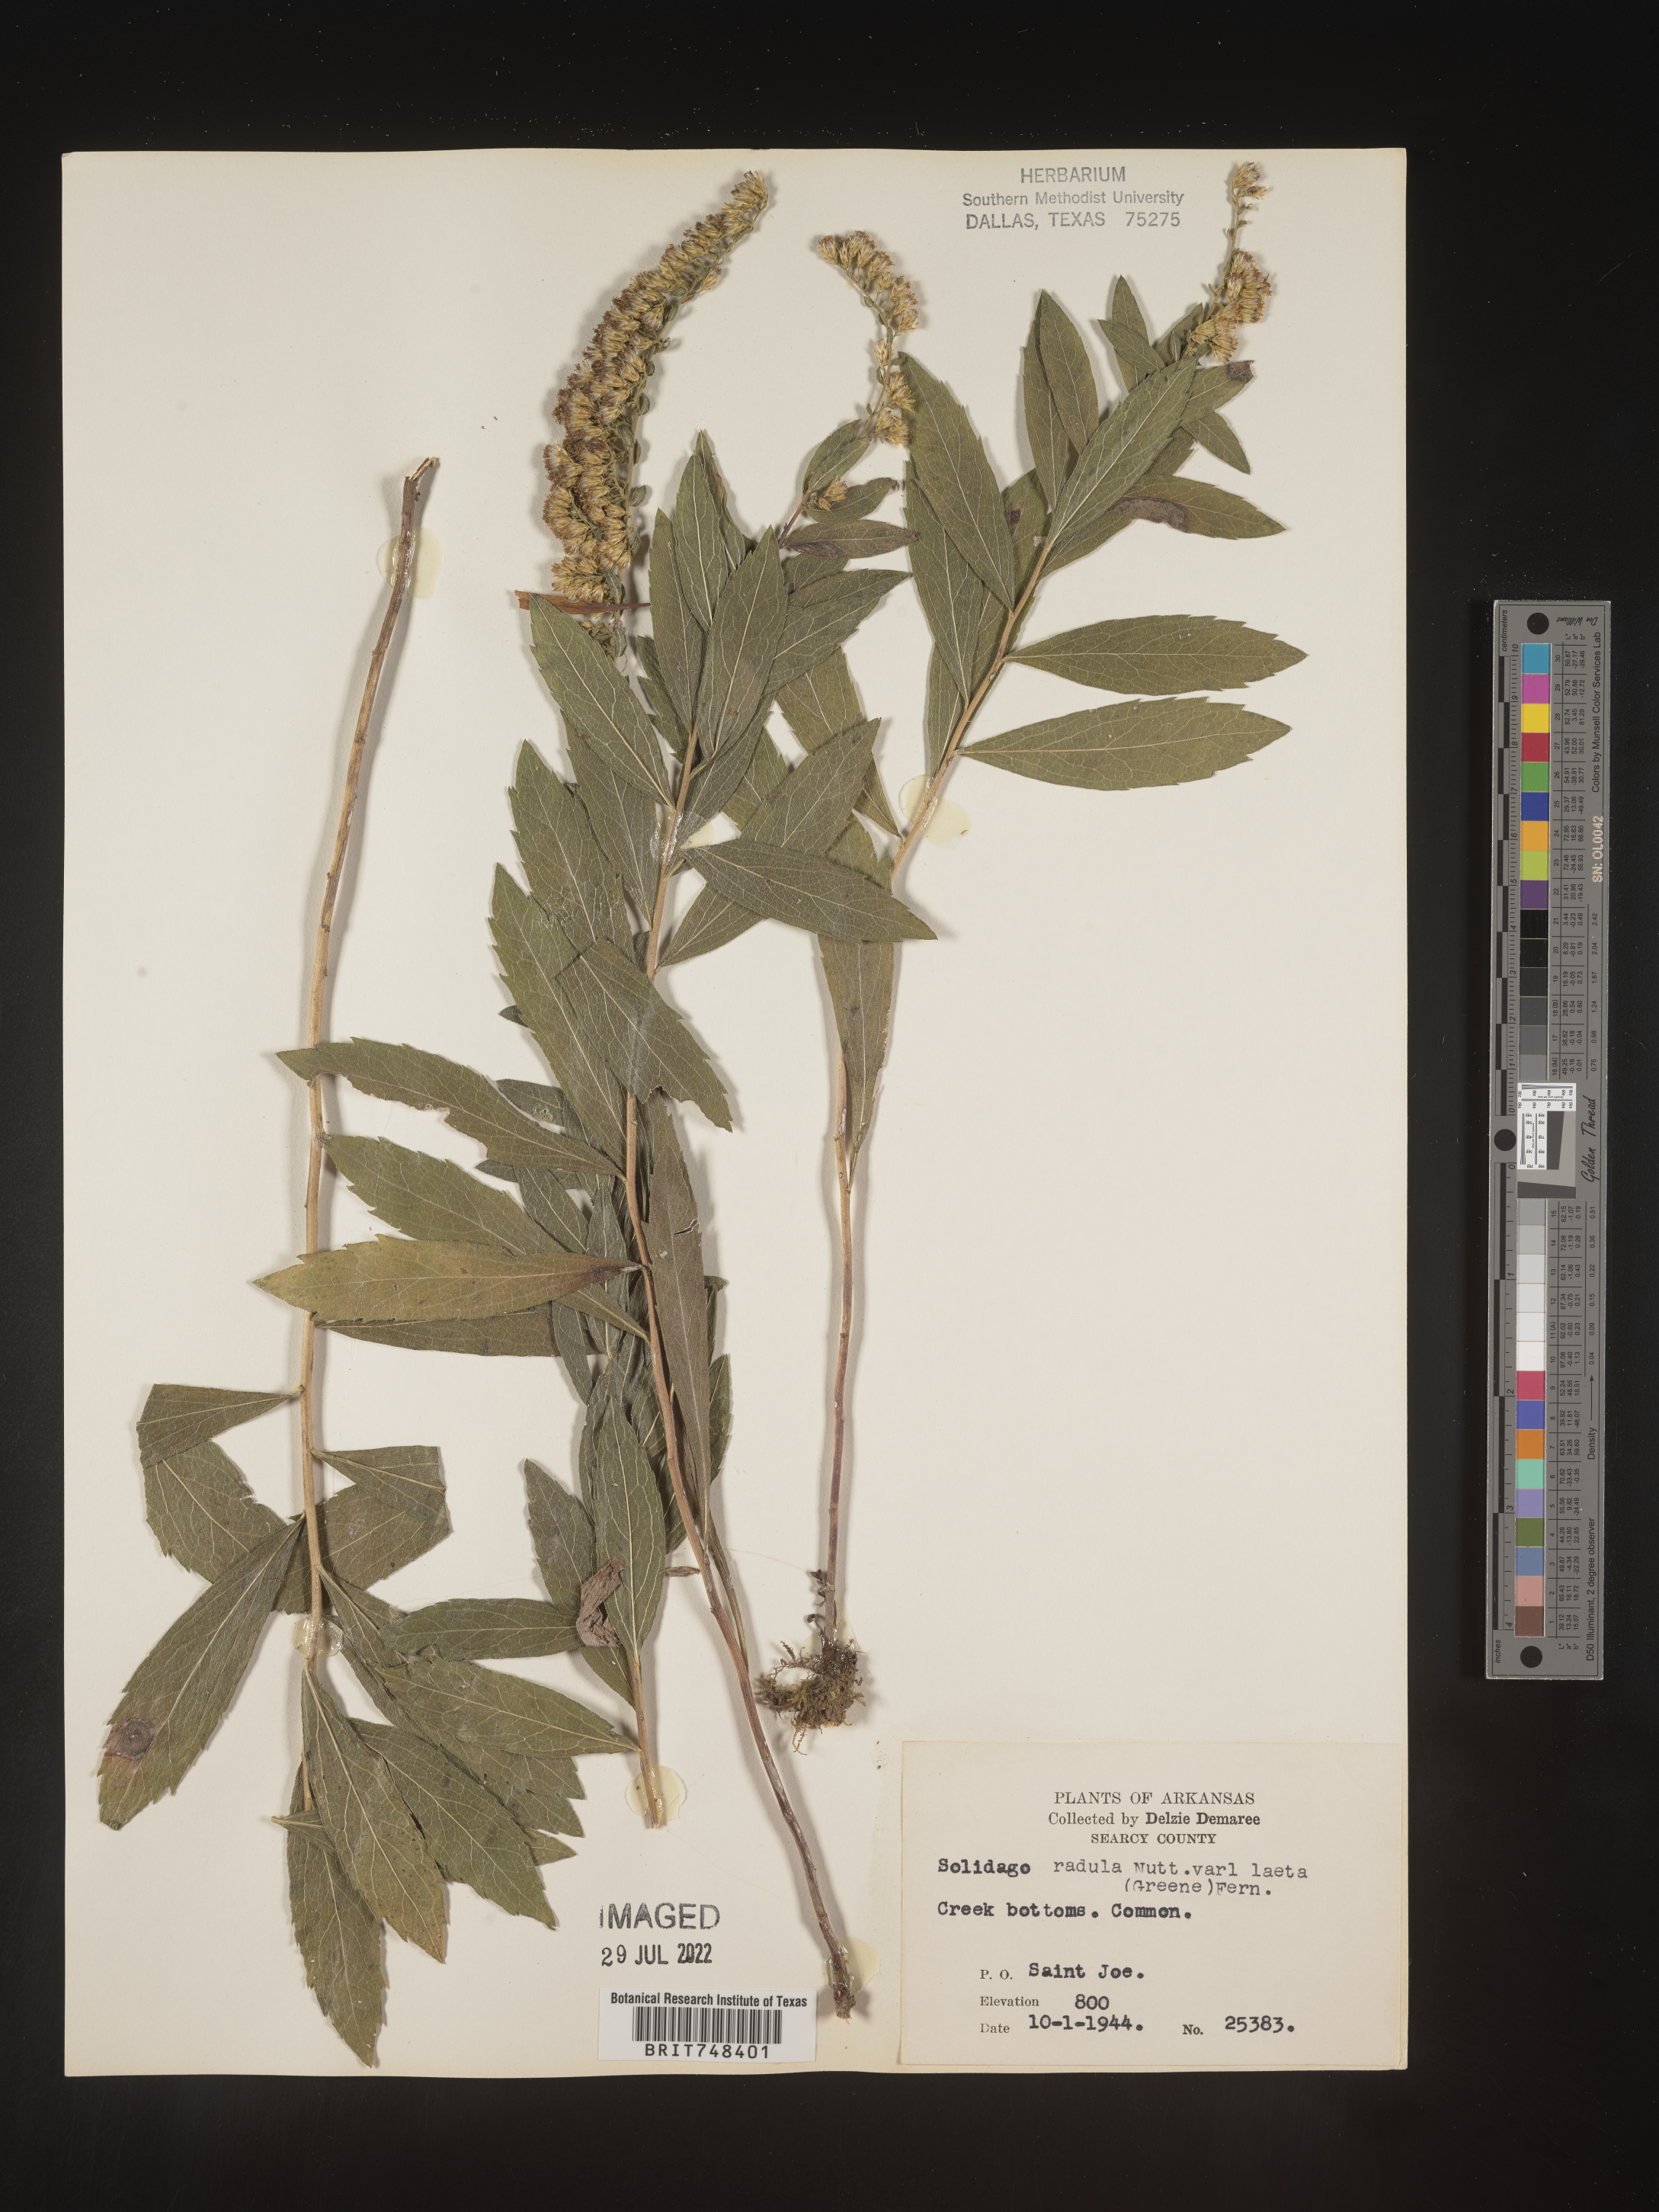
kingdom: Plantae
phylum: Tracheophyta
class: Magnoliopsida
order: Asterales
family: Asteraceae
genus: Solidago
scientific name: Solidago radula
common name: Western rough goldenrod
